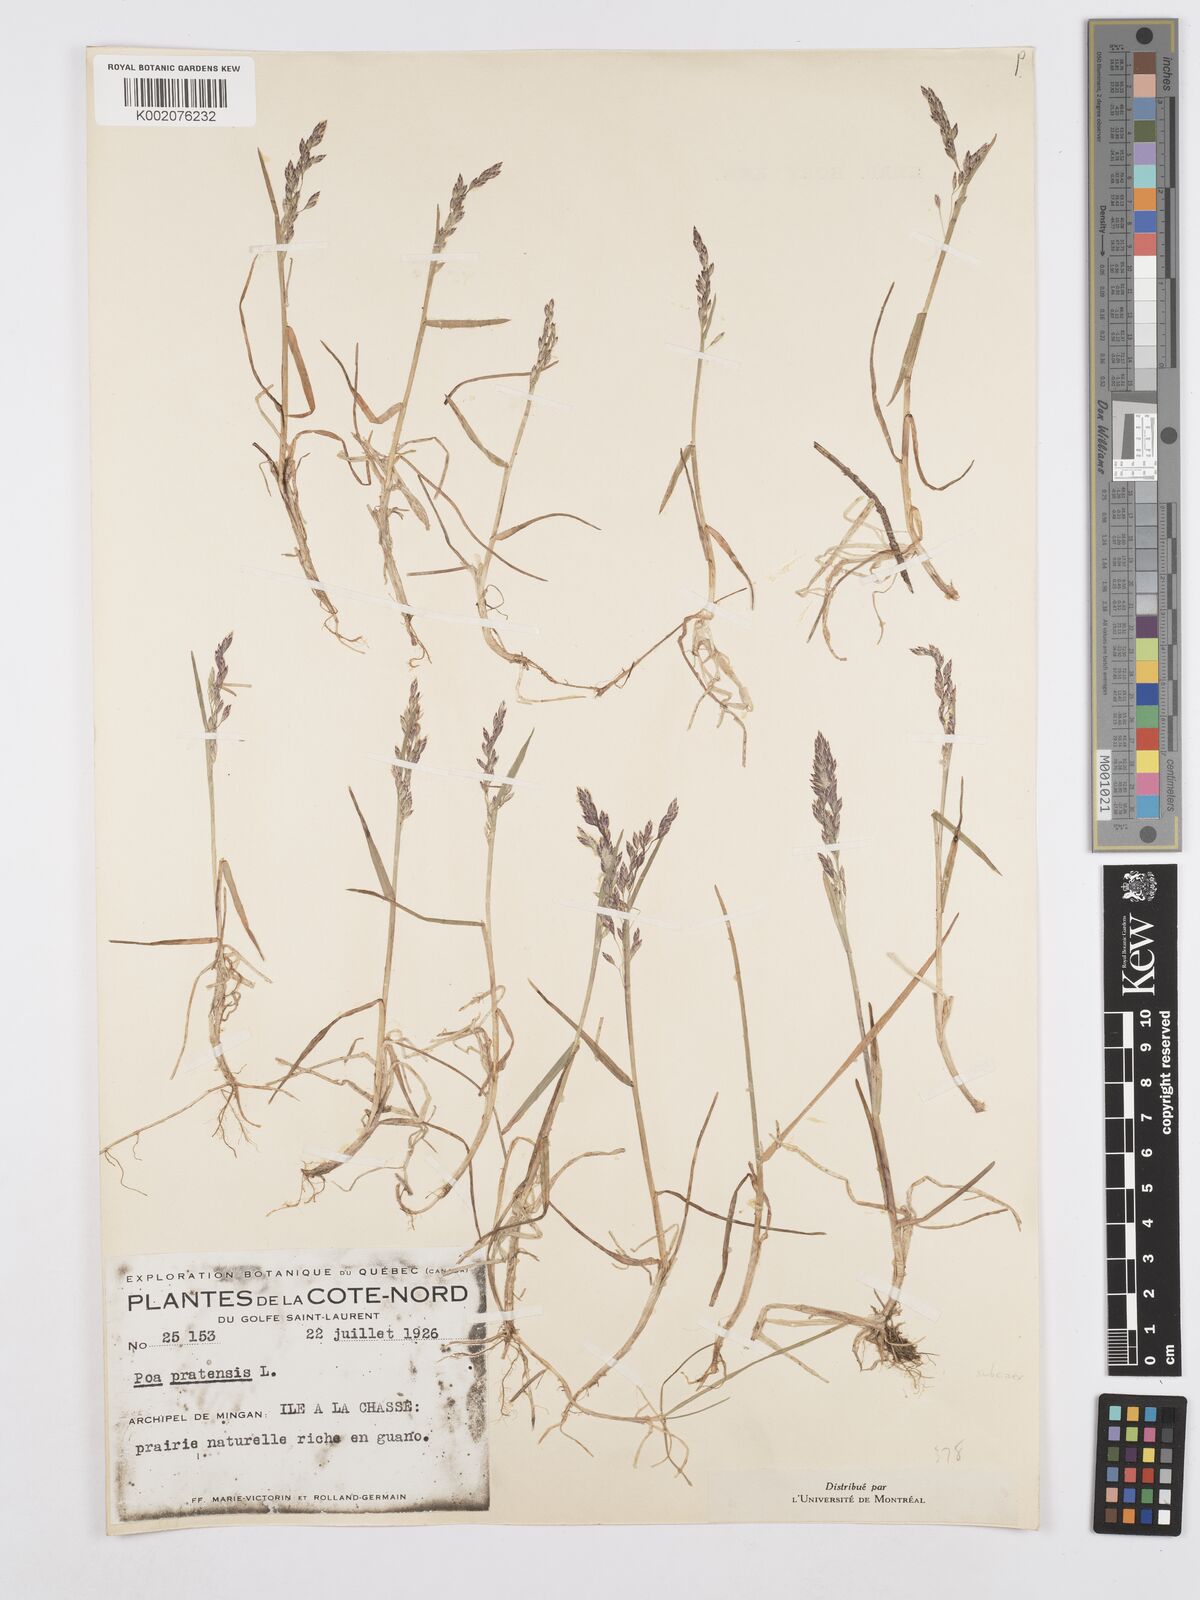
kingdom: Plantae
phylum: Tracheophyta
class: Liliopsida
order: Poales
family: Poaceae
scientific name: Poaceae
